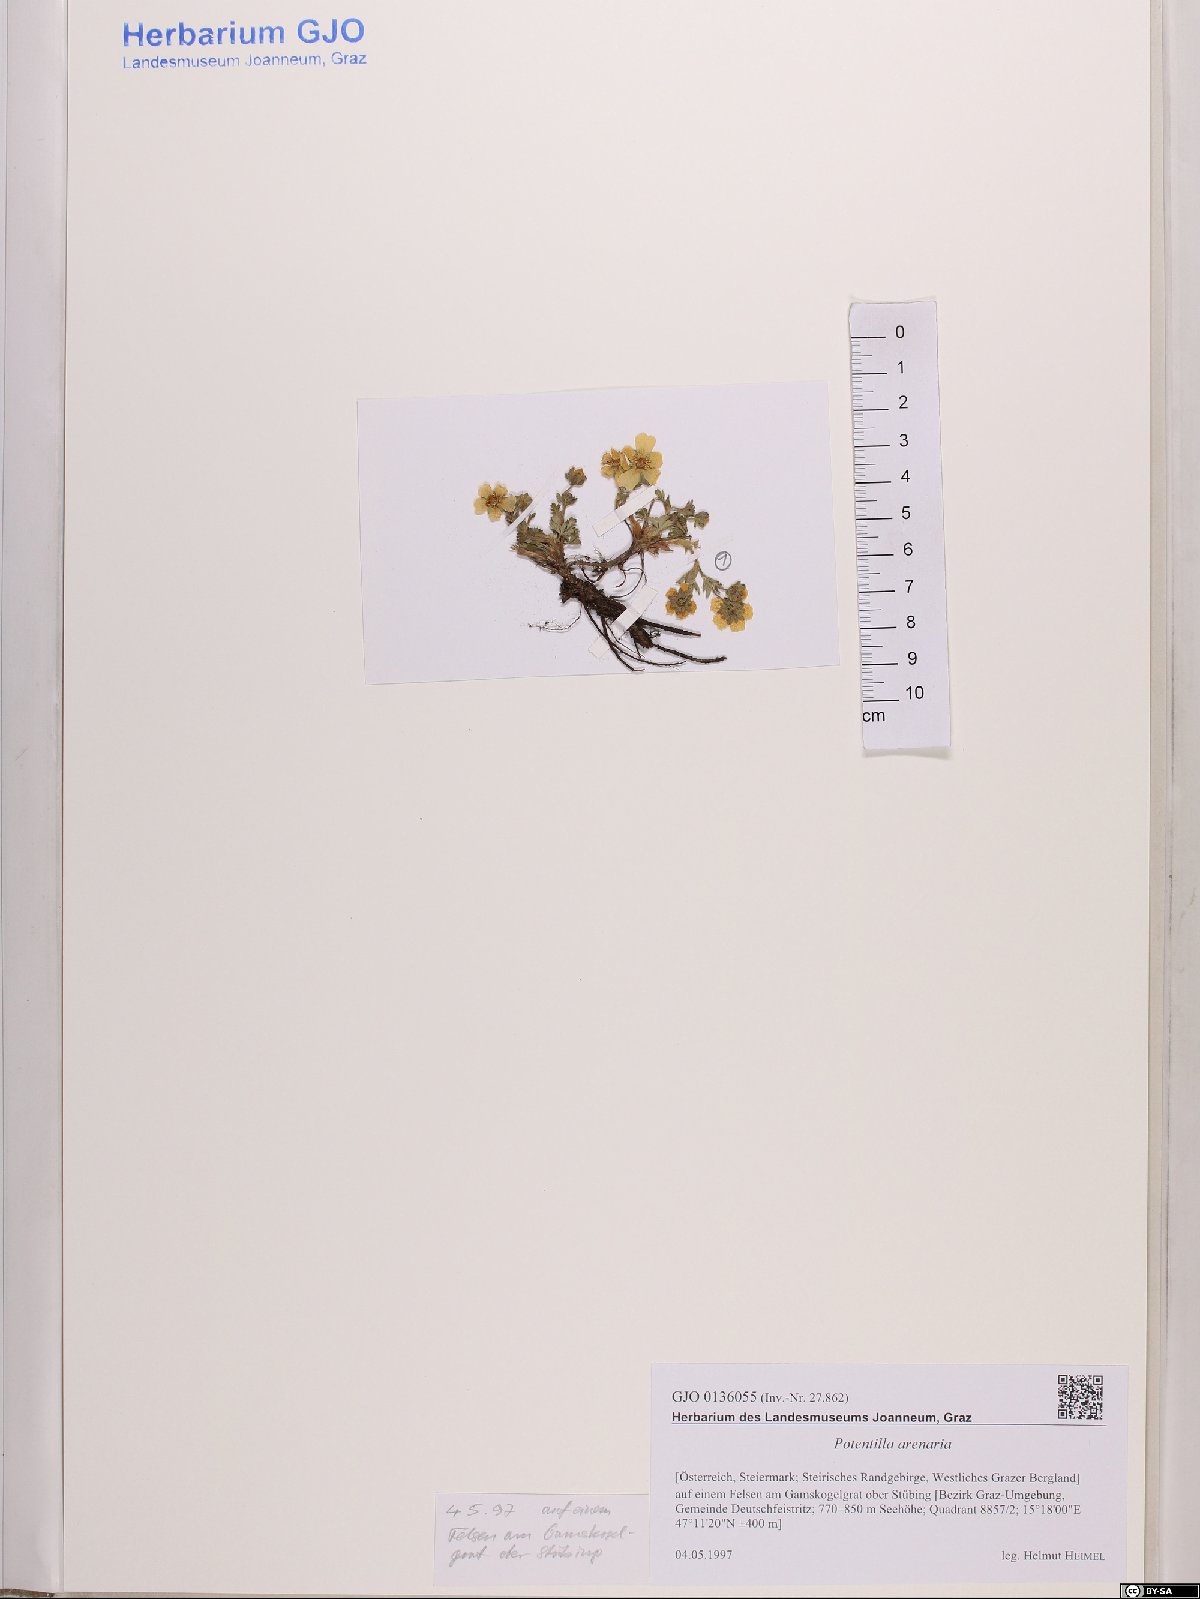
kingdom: Plantae
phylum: Tracheophyta
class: Magnoliopsida
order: Rosales
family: Rosaceae
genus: Potentilla
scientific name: Potentilla cinerea
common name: Ashy cinquefoil
